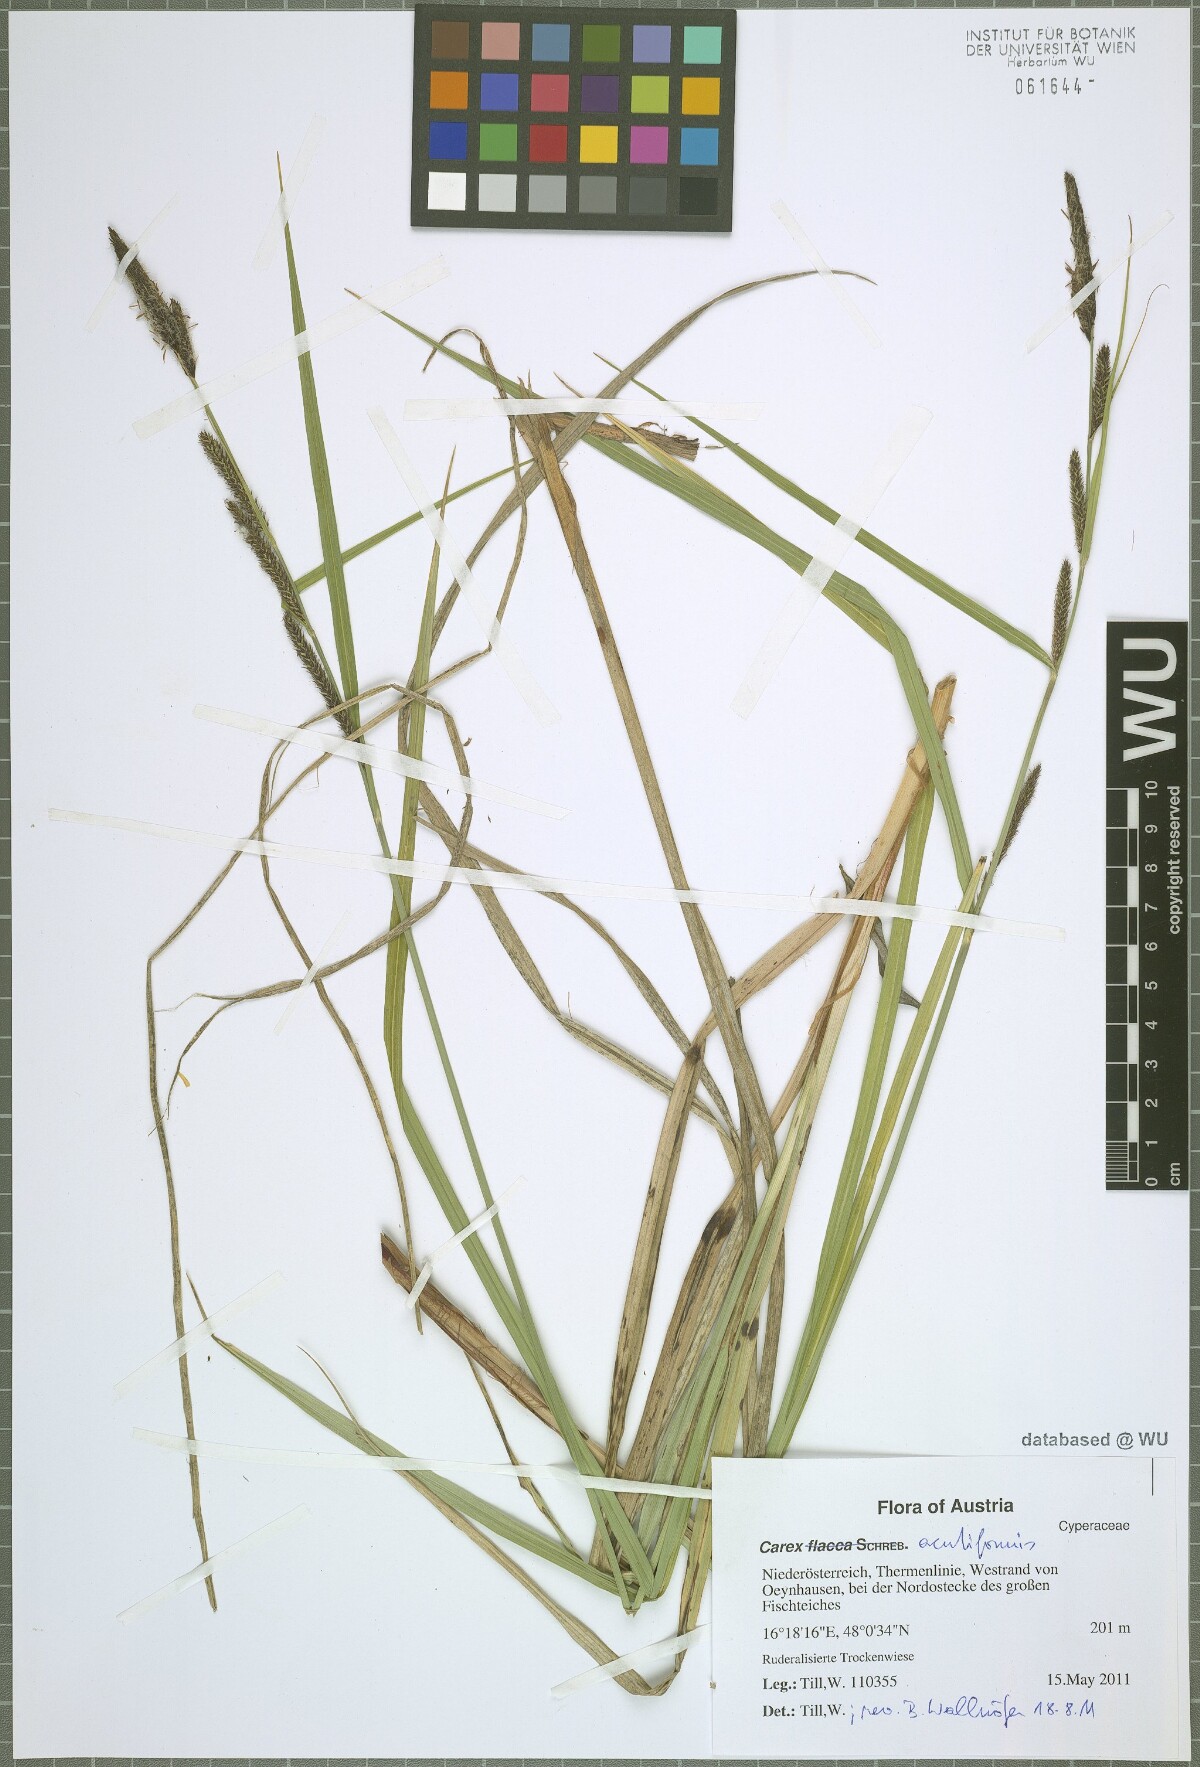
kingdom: Plantae
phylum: Tracheophyta
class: Liliopsida
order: Poales
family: Cyperaceae
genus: Carex
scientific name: Carex acutiformis
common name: Lesser pond-sedge
